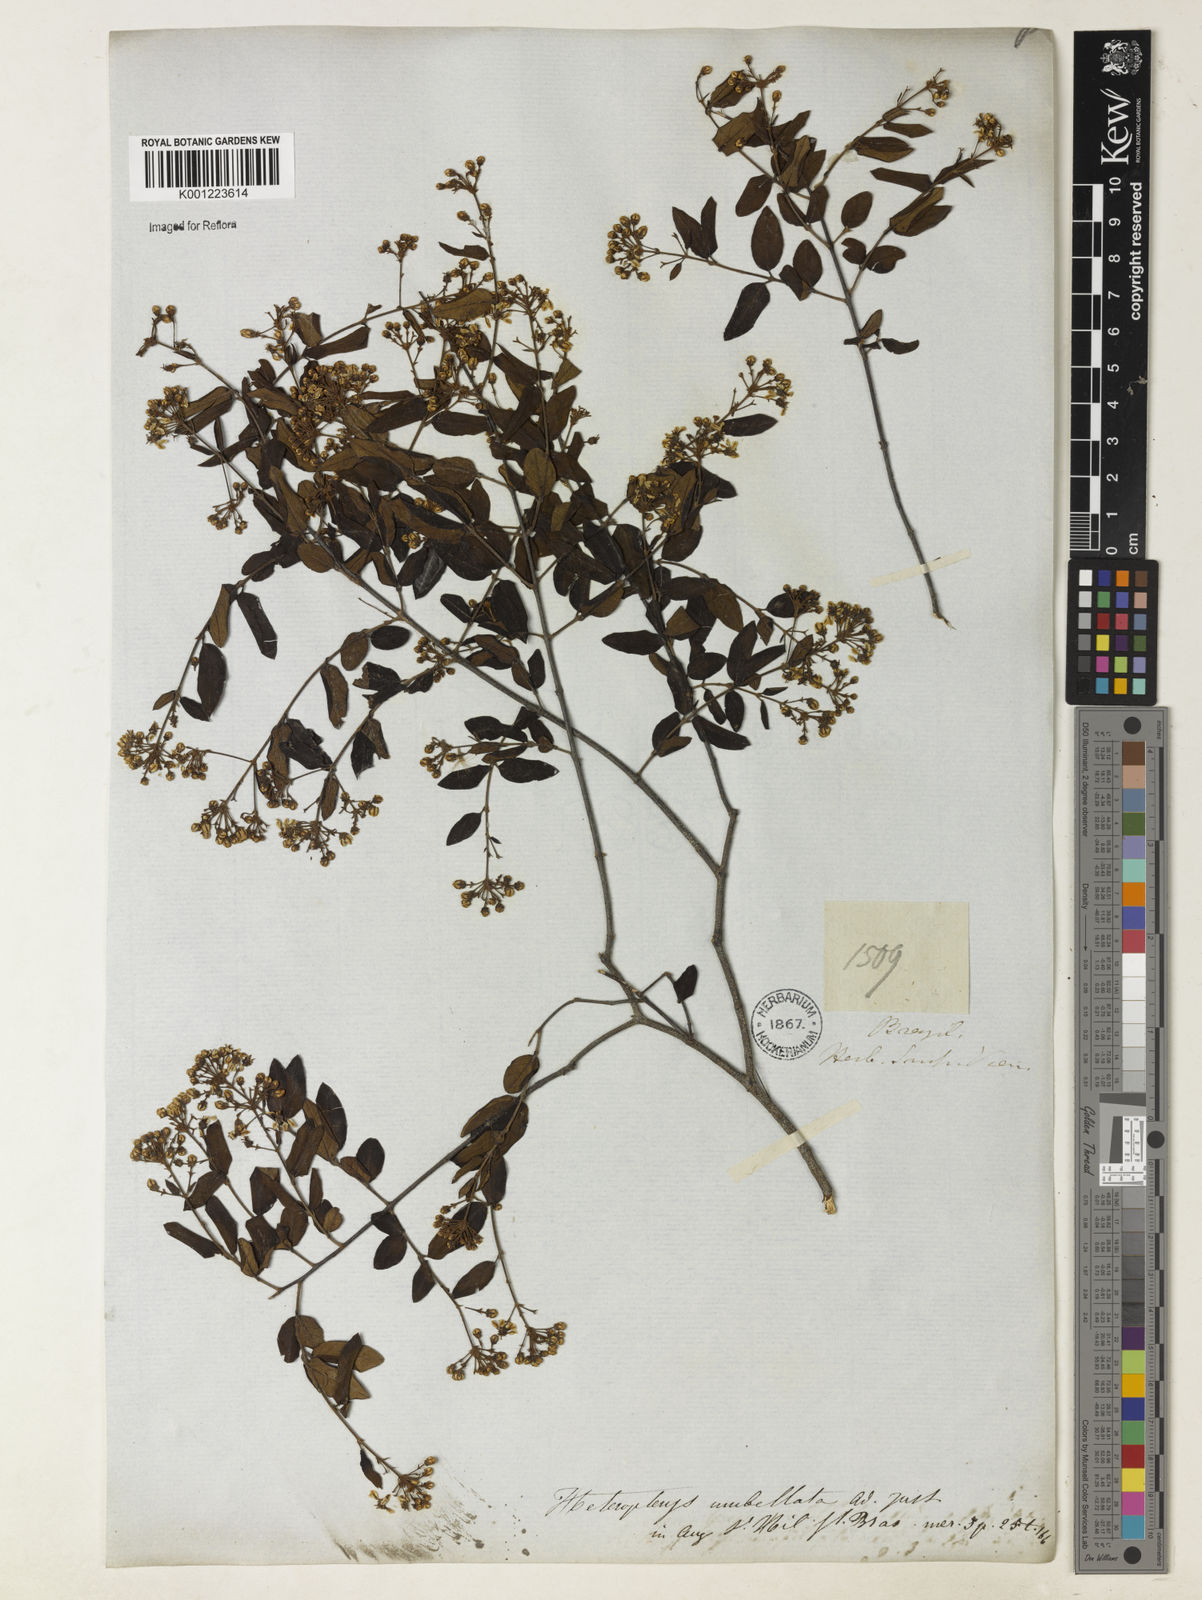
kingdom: Plantae
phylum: Tracheophyta
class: Magnoliopsida
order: Malpighiales
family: Malpighiaceae
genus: Heteropterys
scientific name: Heteropterys umbellata
